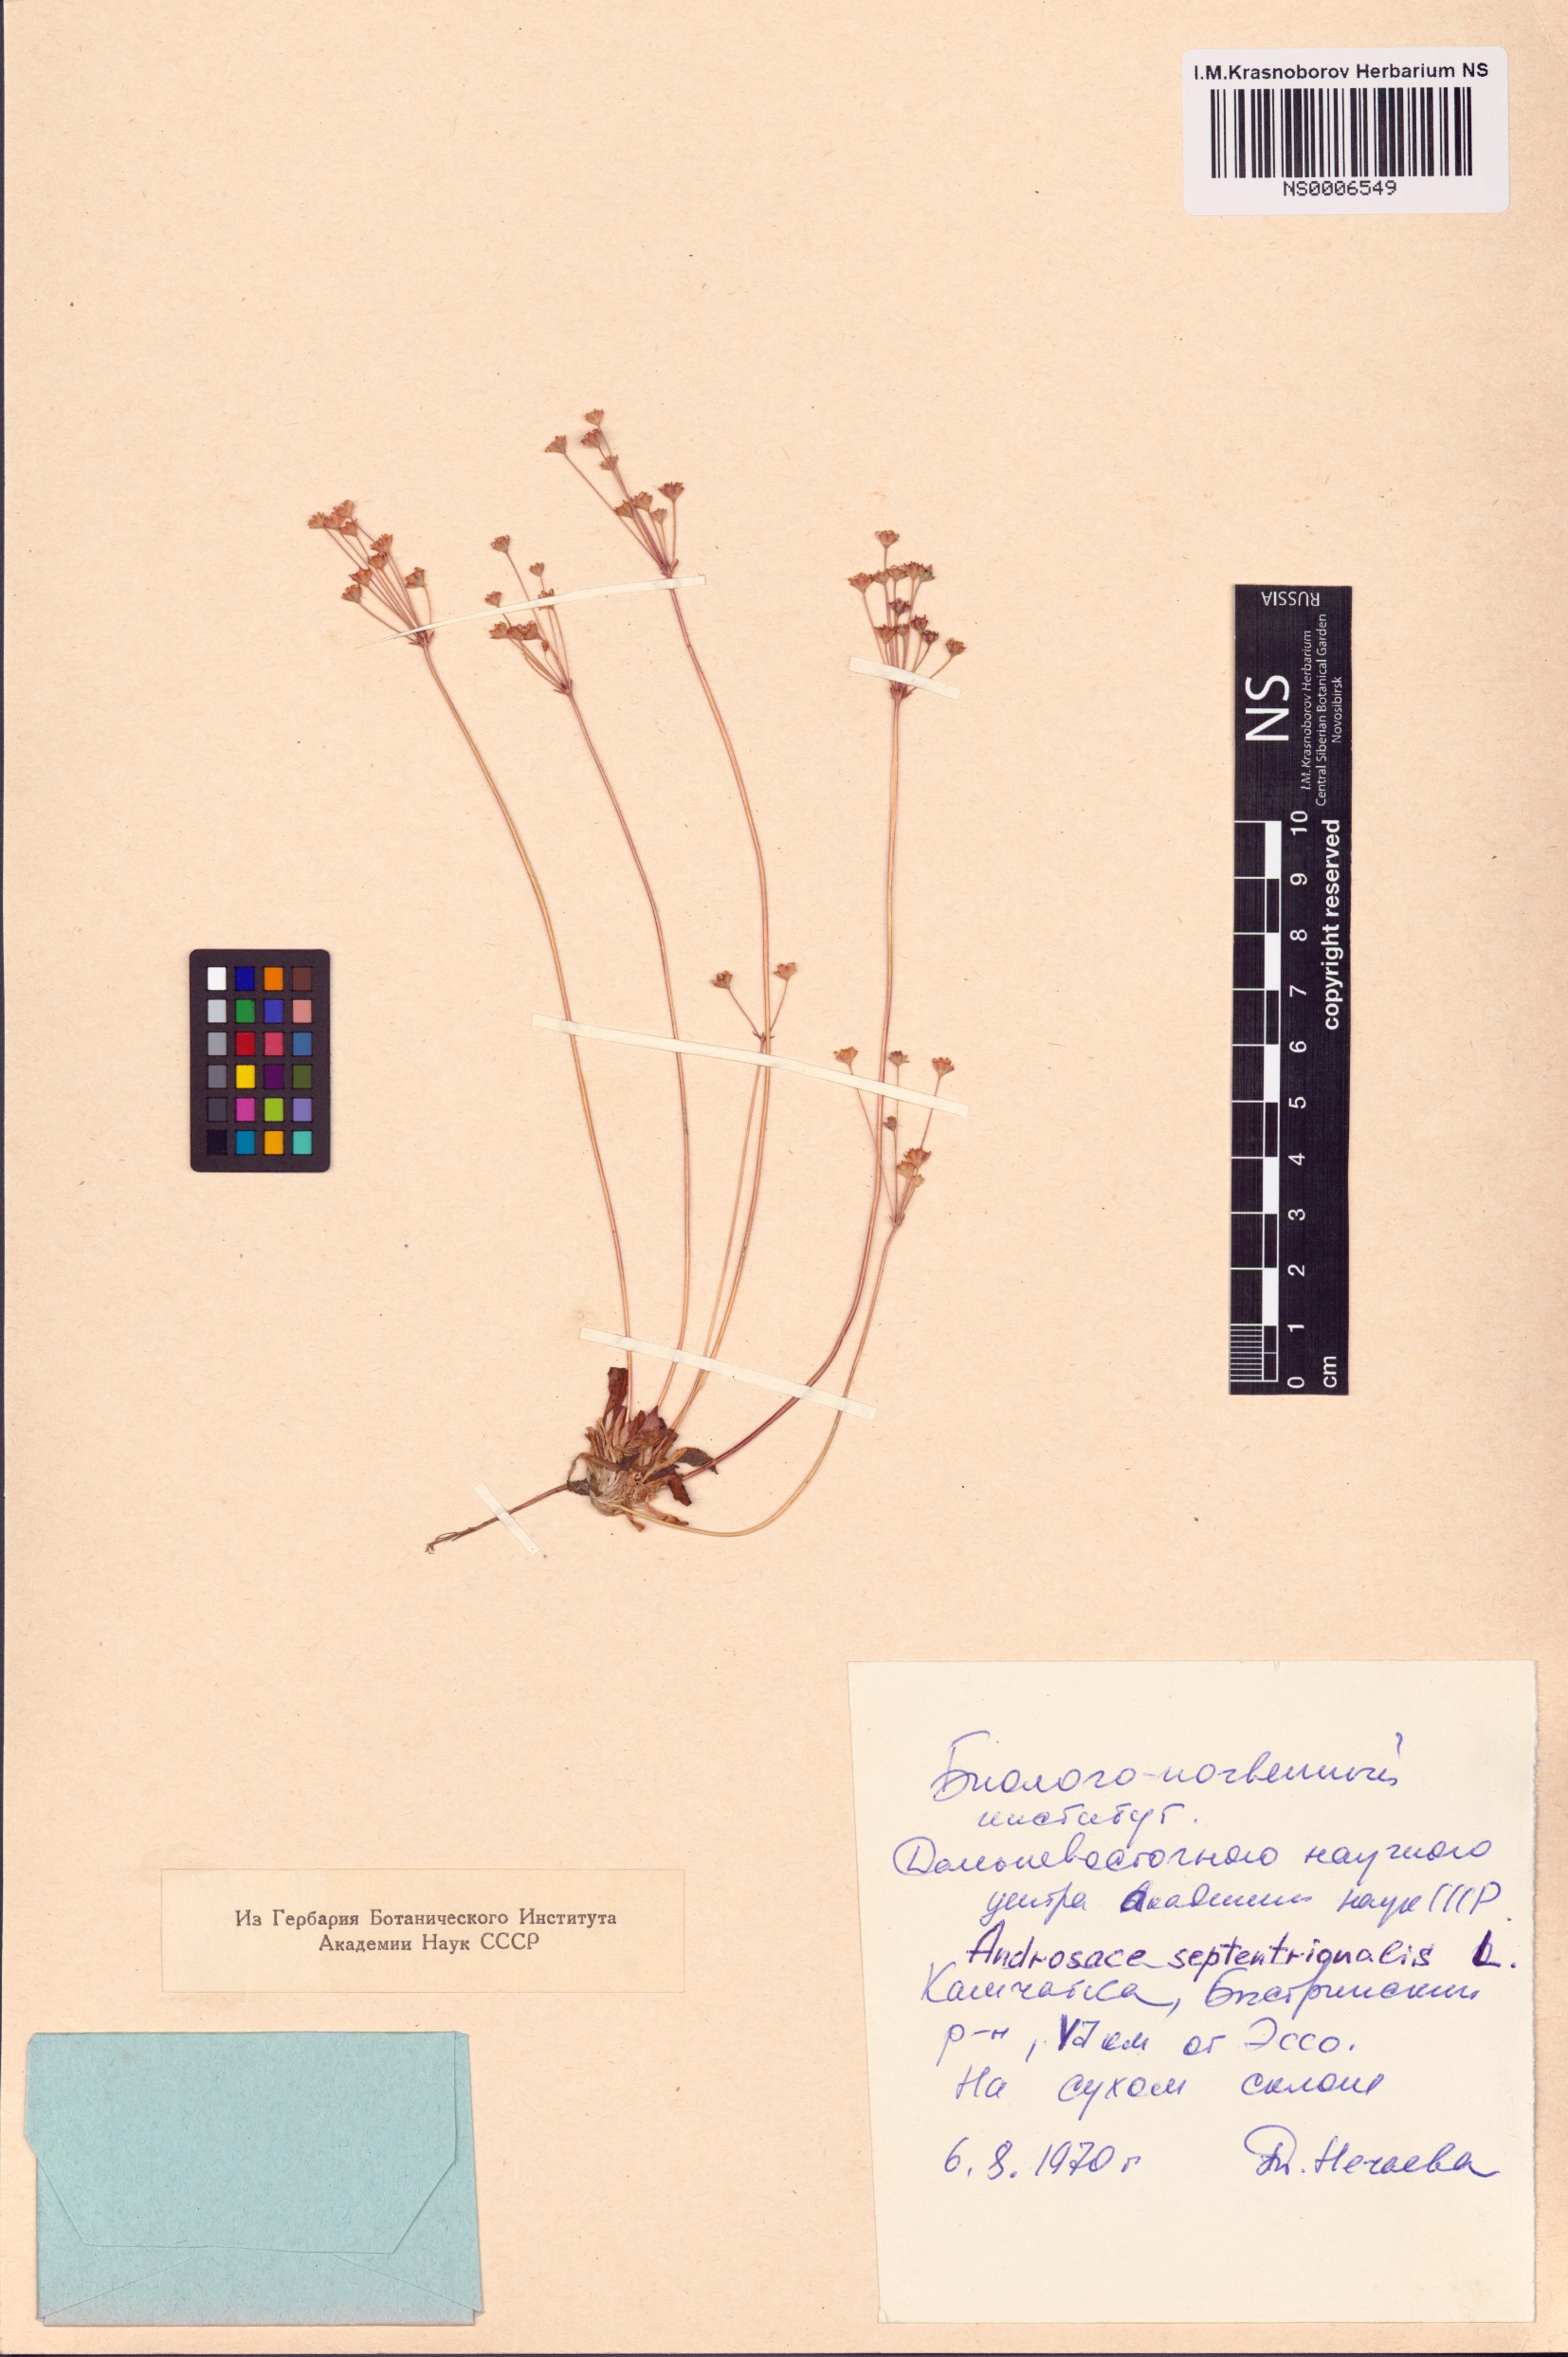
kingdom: Plantae
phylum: Tracheophyta
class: Magnoliopsida
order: Ericales
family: Primulaceae
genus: Androsace
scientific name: Androsace septentrionalis
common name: Hairy northern fairy-candelabra
